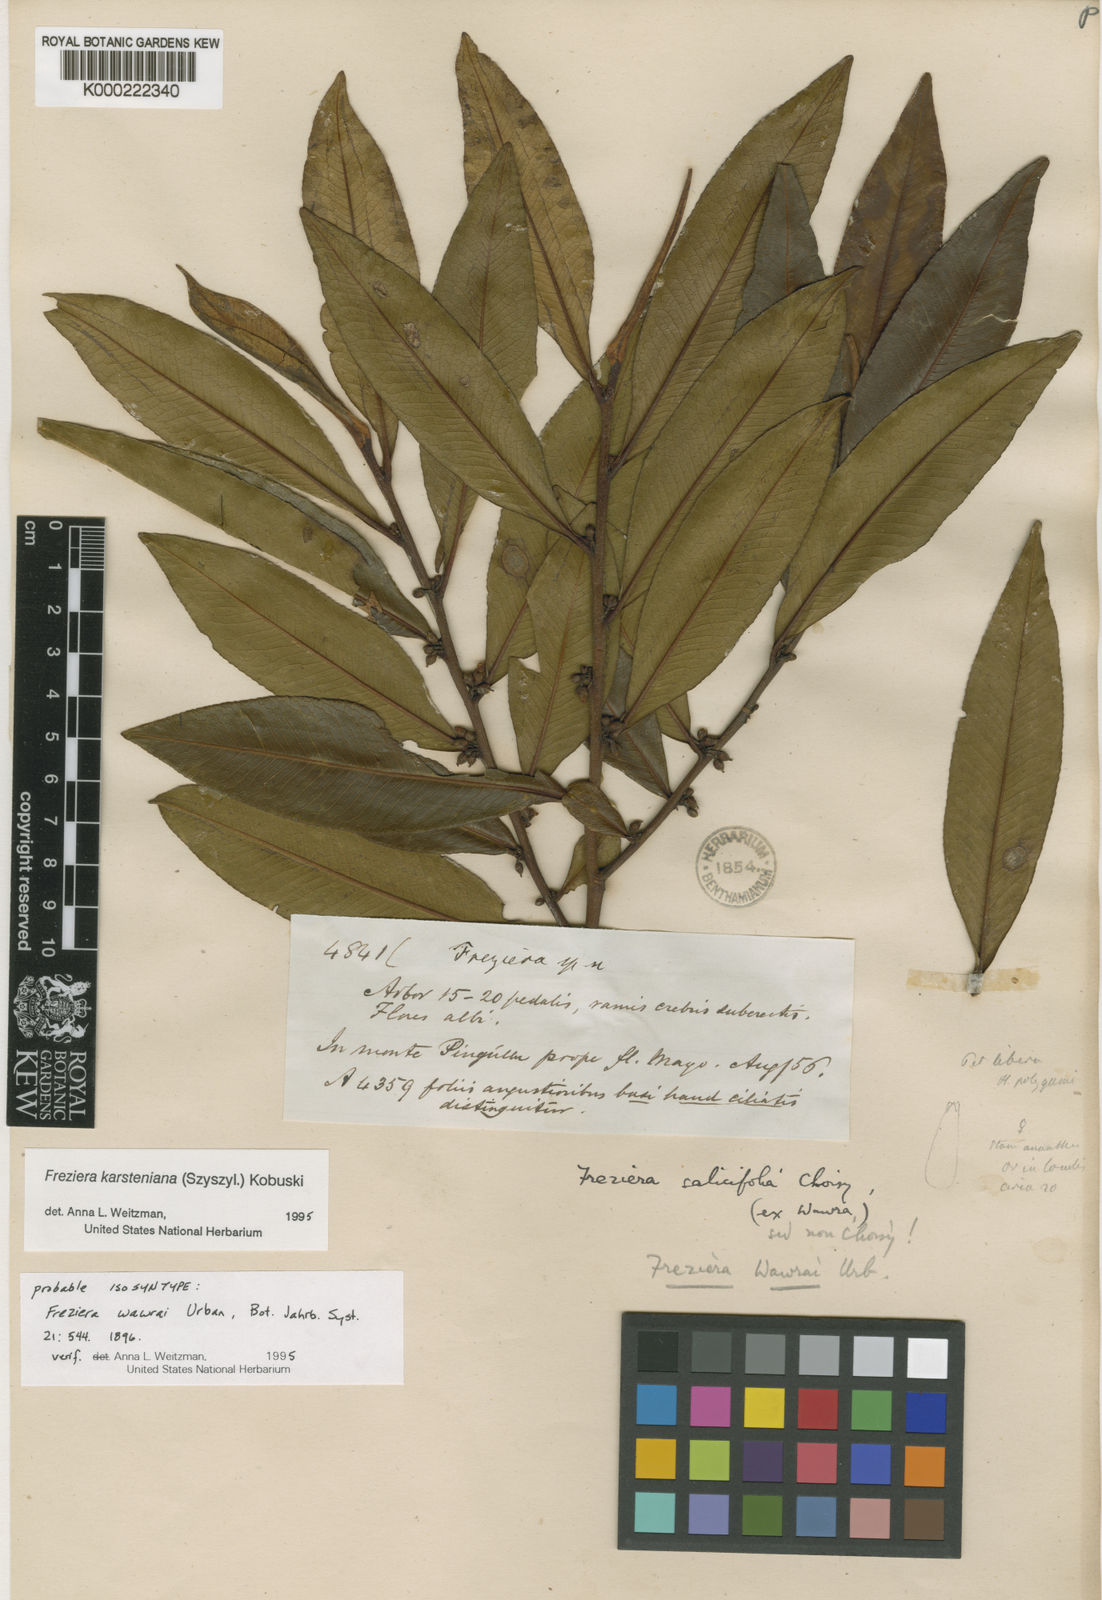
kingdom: Plantae
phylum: Tracheophyta
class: Magnoliopsida
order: Ericales
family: Pentaphylacaceae
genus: Freziera
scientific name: Freziera
